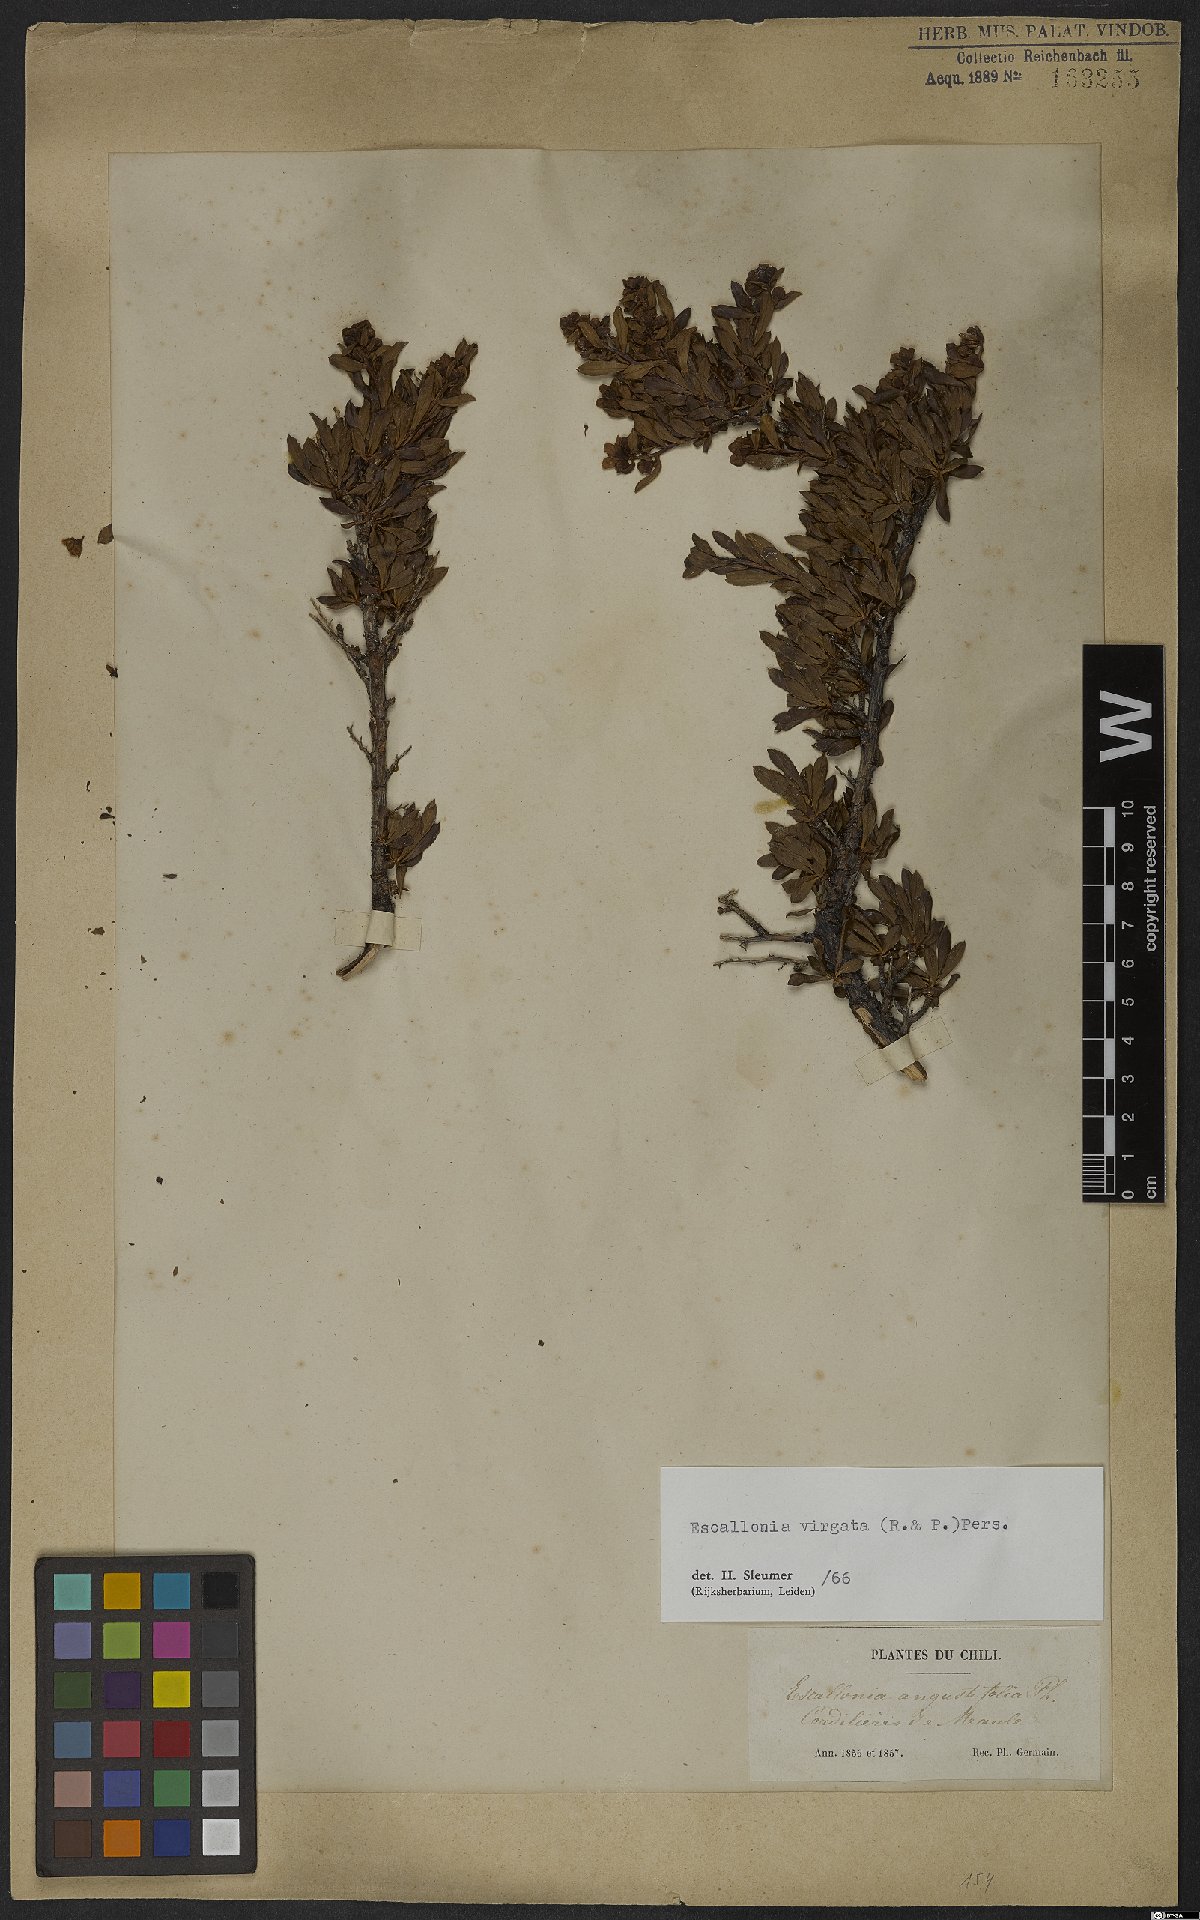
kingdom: Plantae
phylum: Tracheophyta
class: Magnoliopsida
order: Escalloniales
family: Escalloniaceae
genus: Escallonia
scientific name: Escallonia virgata
